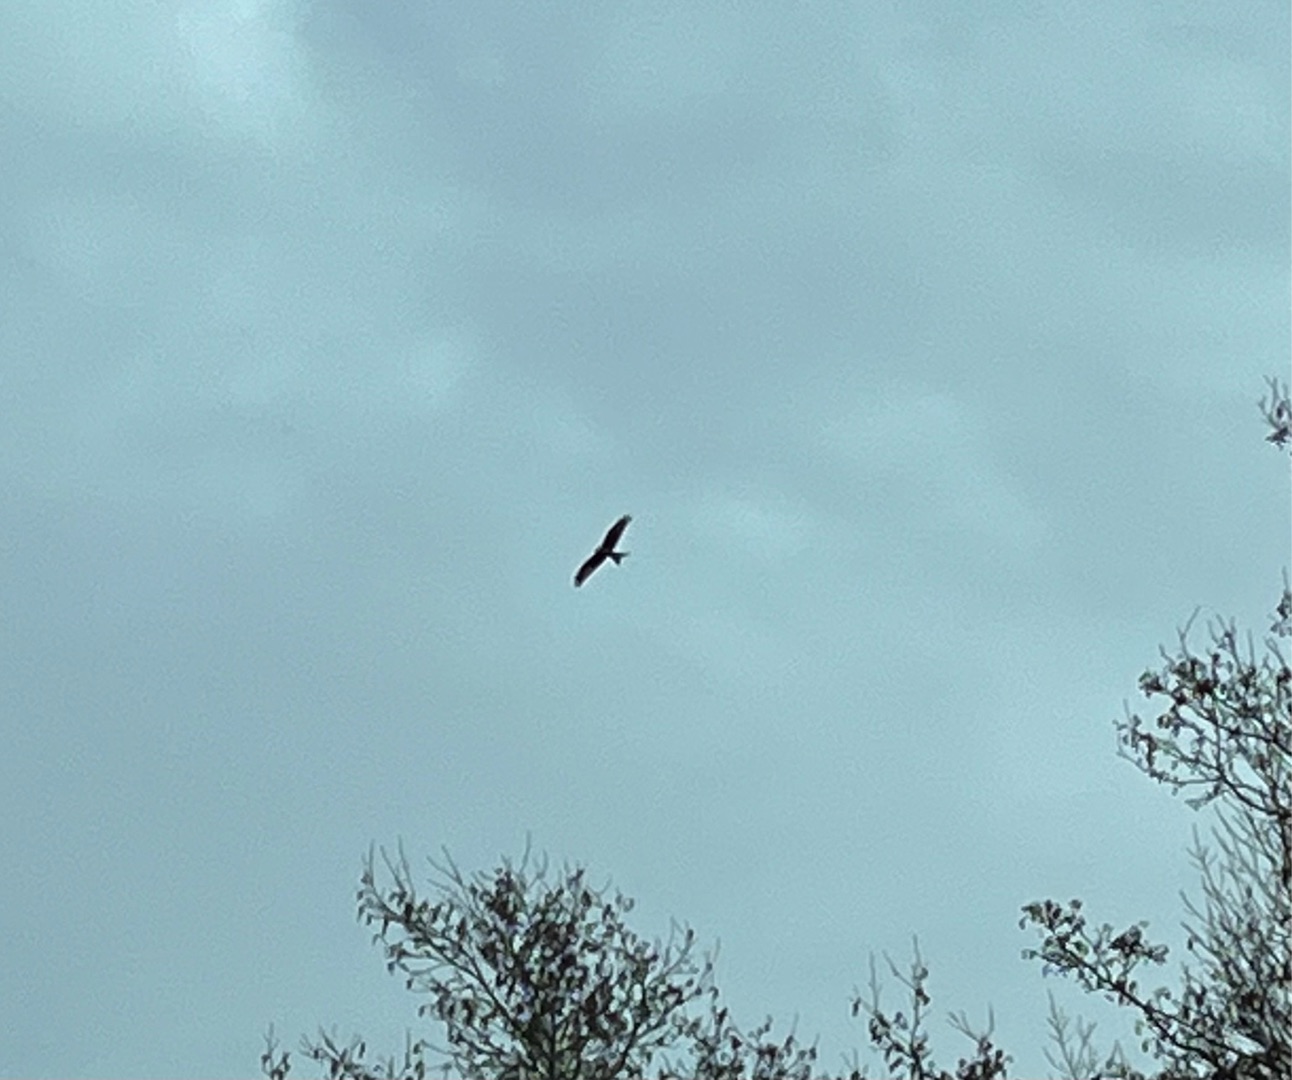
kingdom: Animalia
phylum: Chordata
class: Aves
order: Accipitriformes
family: Accipitridae
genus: Milvus
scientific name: Milvus milvus
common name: Rød glente
